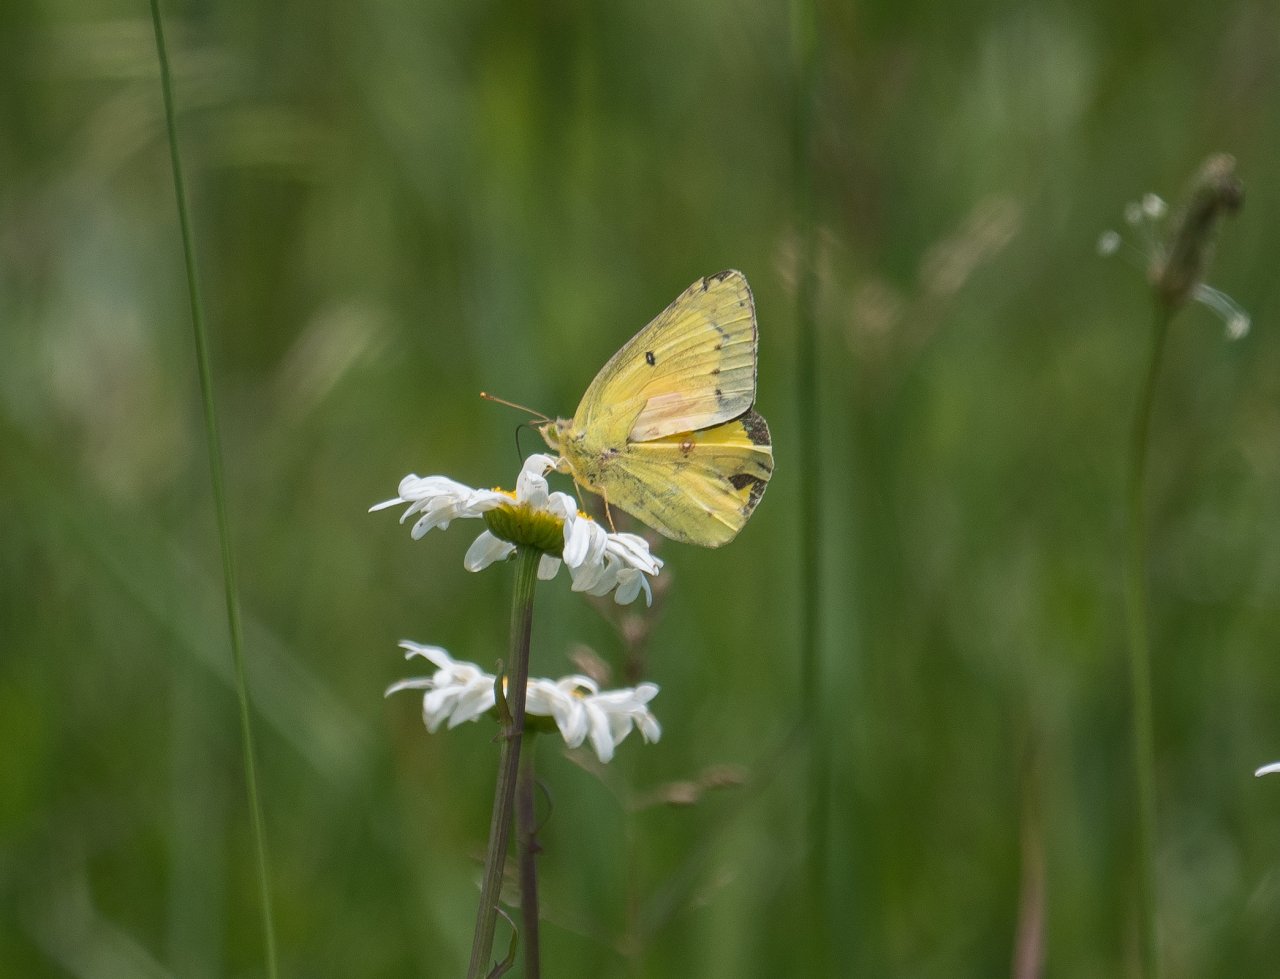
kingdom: Animalia
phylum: Arthropoda
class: Insecta
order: Lepidoptera
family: Pieridae
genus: Colias
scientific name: Colias eurytheme
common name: Orange Sulphur
